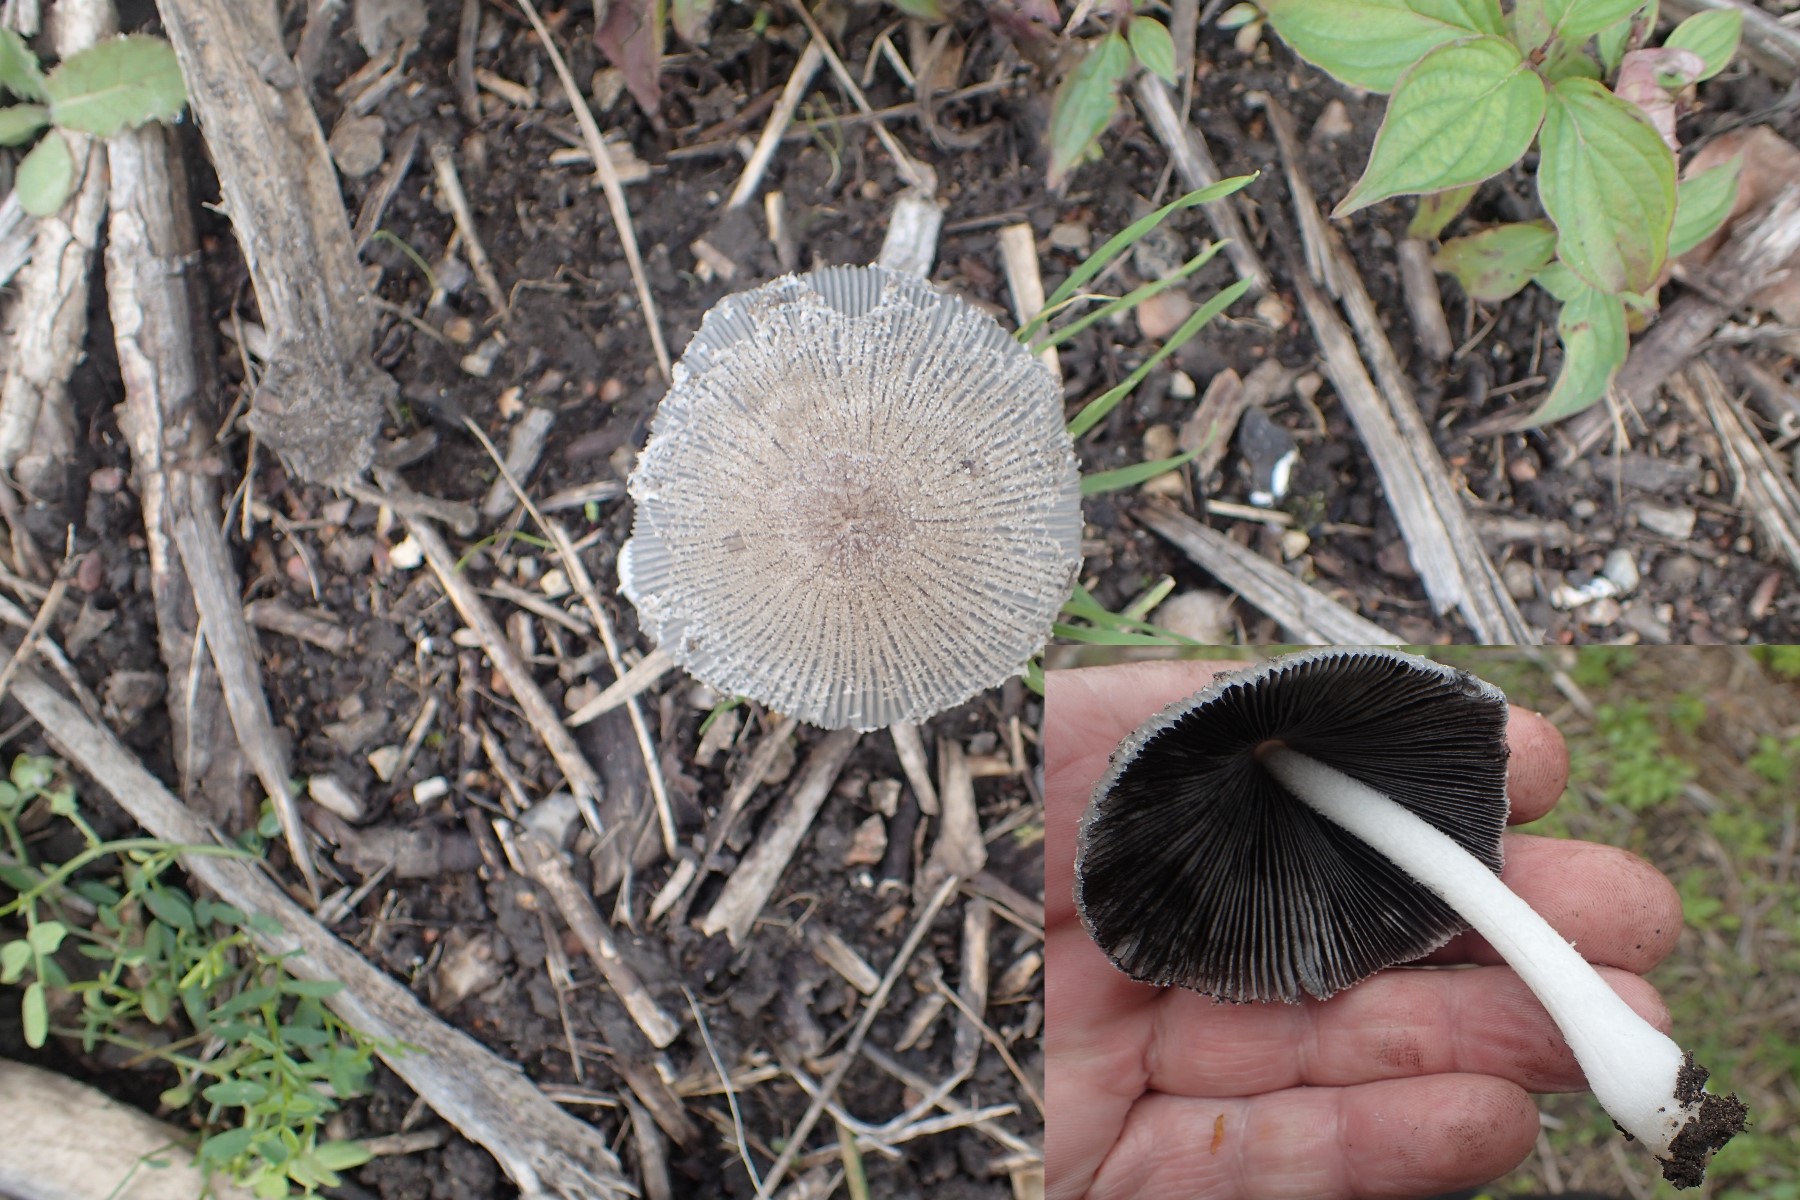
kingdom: Fungi
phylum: Basidiomycota
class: Agaricomycetes
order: Agaricales
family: Psathyrellaceae
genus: Coprinopsis
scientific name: Coprinopsis lagopus
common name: dunstokket blækhat
